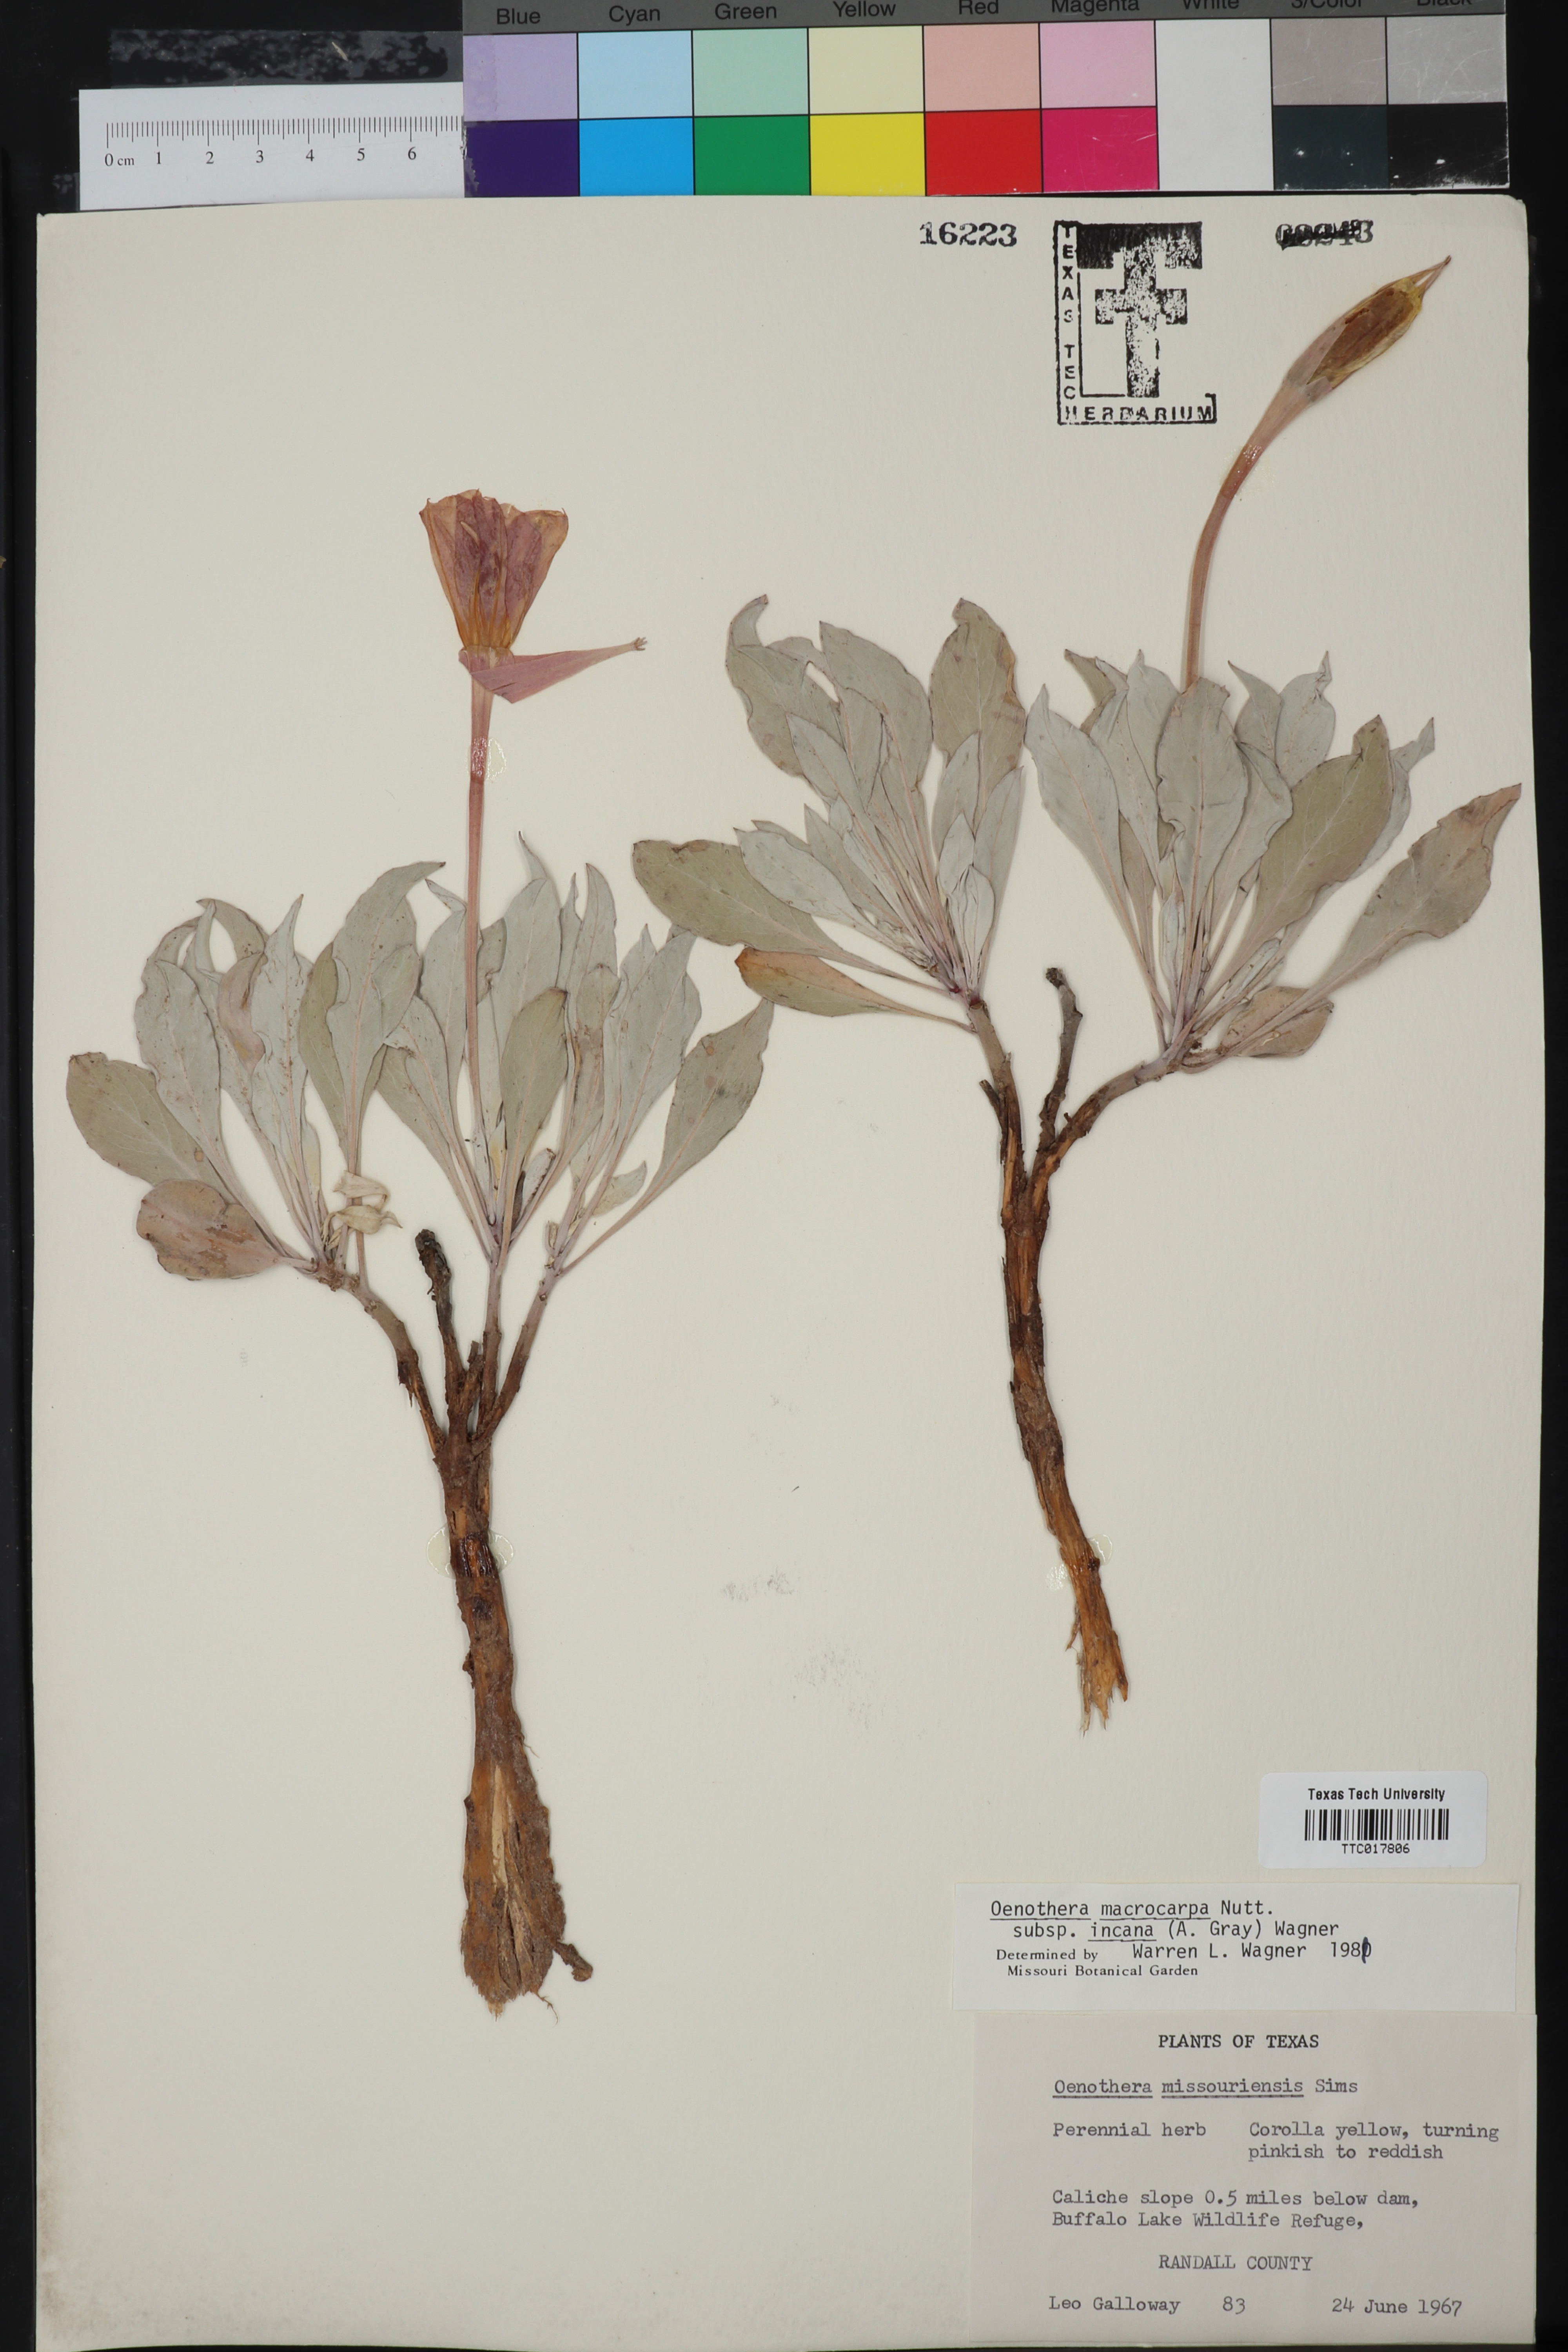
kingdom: Plantae
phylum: Tracheophyta
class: Magnoliopsida
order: Myrtales
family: Onagraceae
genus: Oenothera
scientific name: Oenothera macrocarpa
